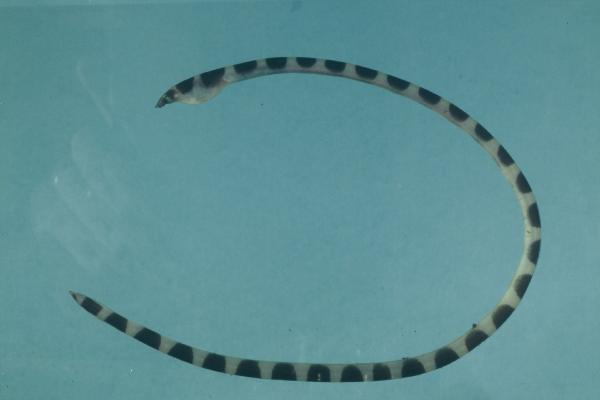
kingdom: Animalia
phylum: Chordata
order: Anguilliformes
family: Ophichthidae
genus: Leiuranus
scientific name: Leiuranus semicinctus
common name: Saddled snake eel
